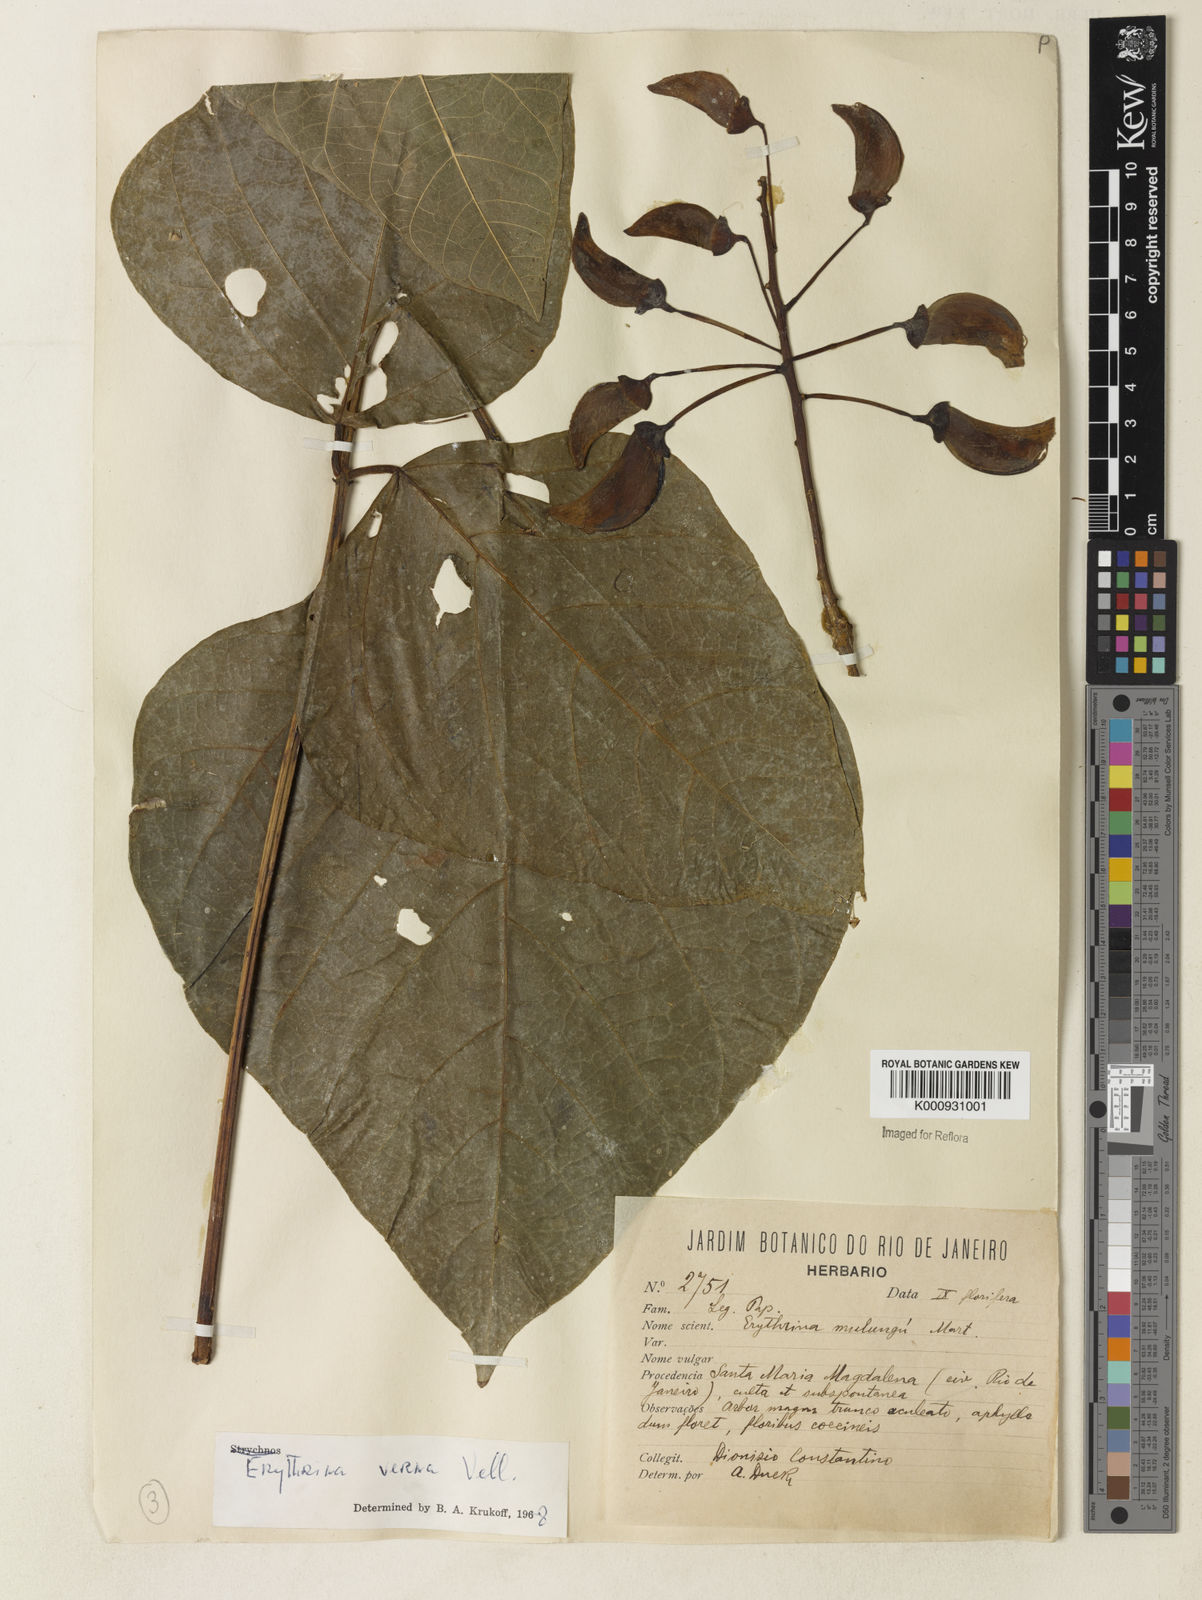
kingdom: Plantae
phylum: Tracheophyta
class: Magnoliopsida
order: Fabales
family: Fabaceae
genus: Erythrina
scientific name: Erythrina verna
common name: Mulungú
